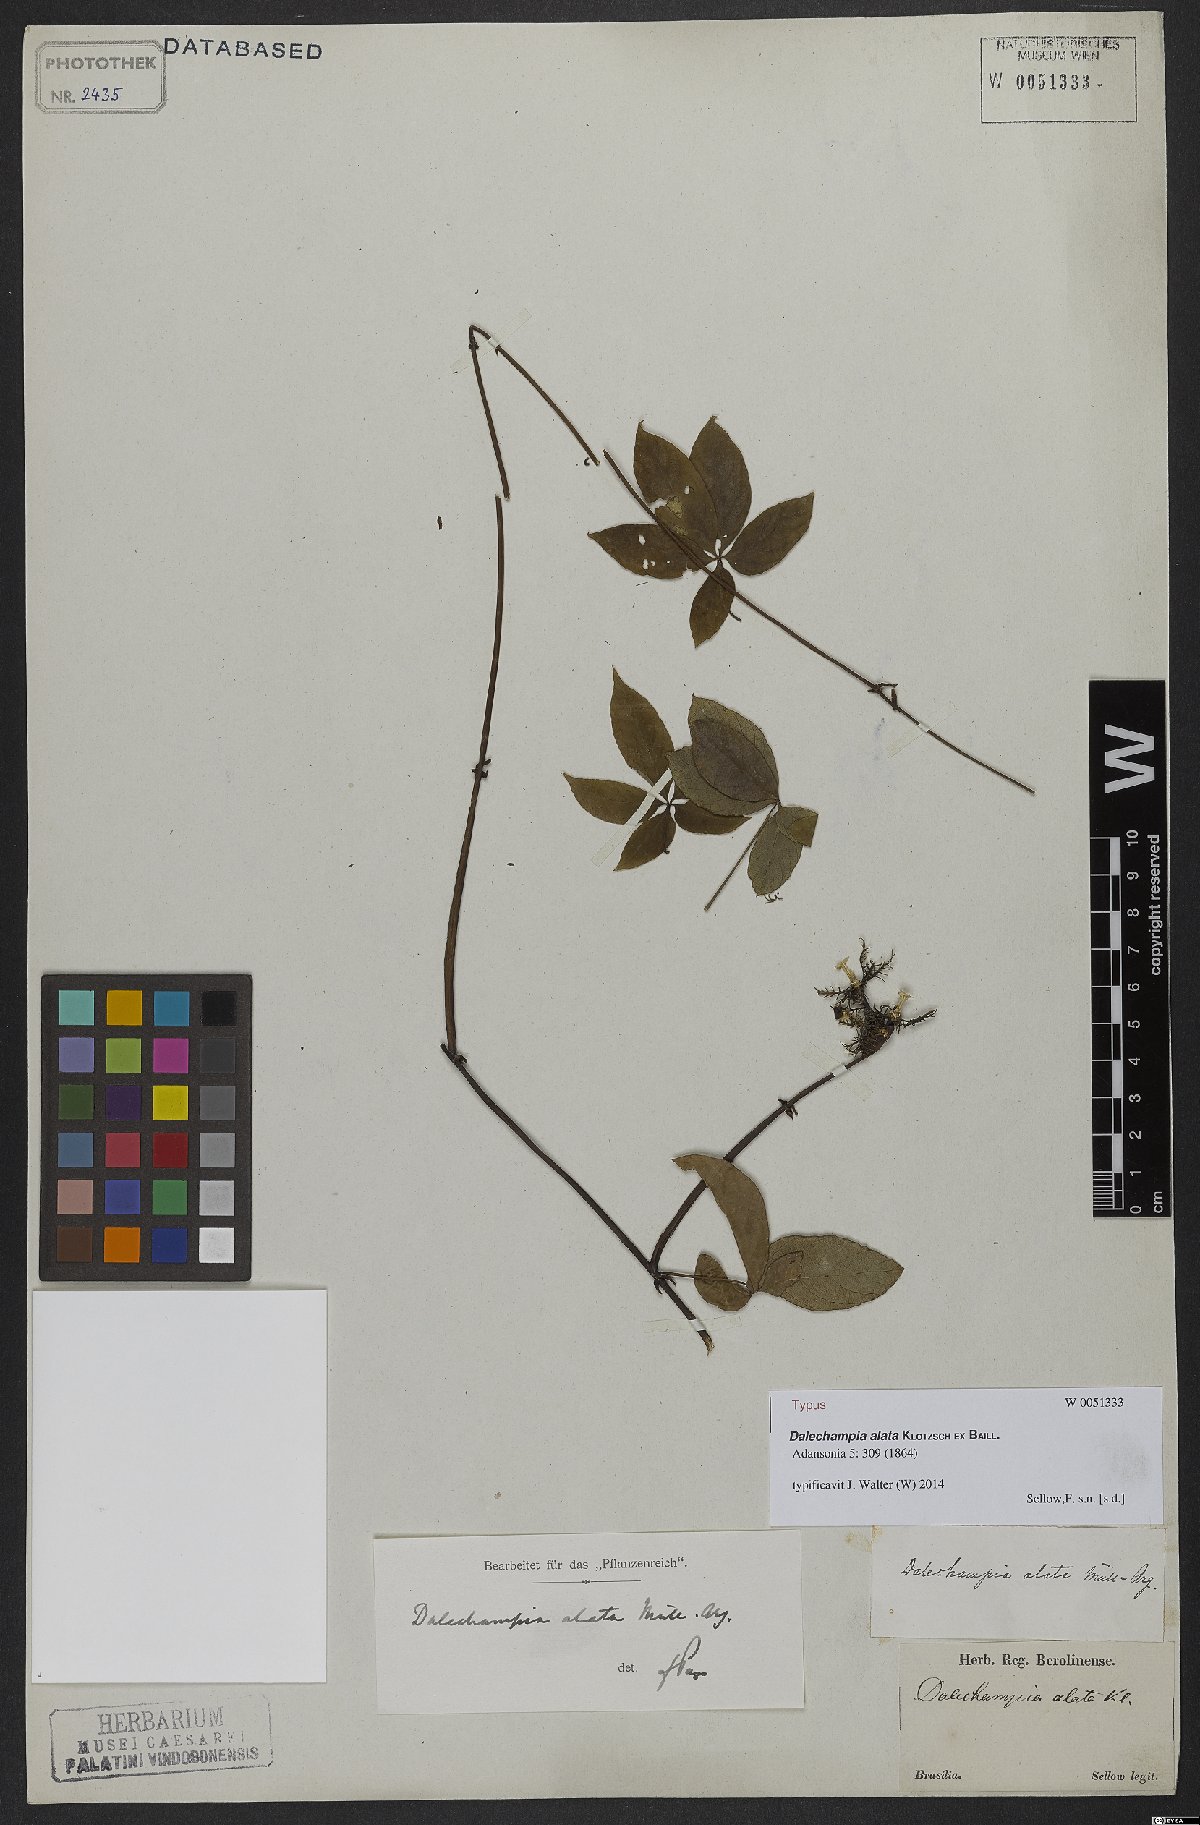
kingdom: Plantae
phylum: Tracheophyta
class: Magnoliopsida
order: Malpighiales
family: Euphorbiaceae
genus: Dalechampia
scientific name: Dalechampia alata
